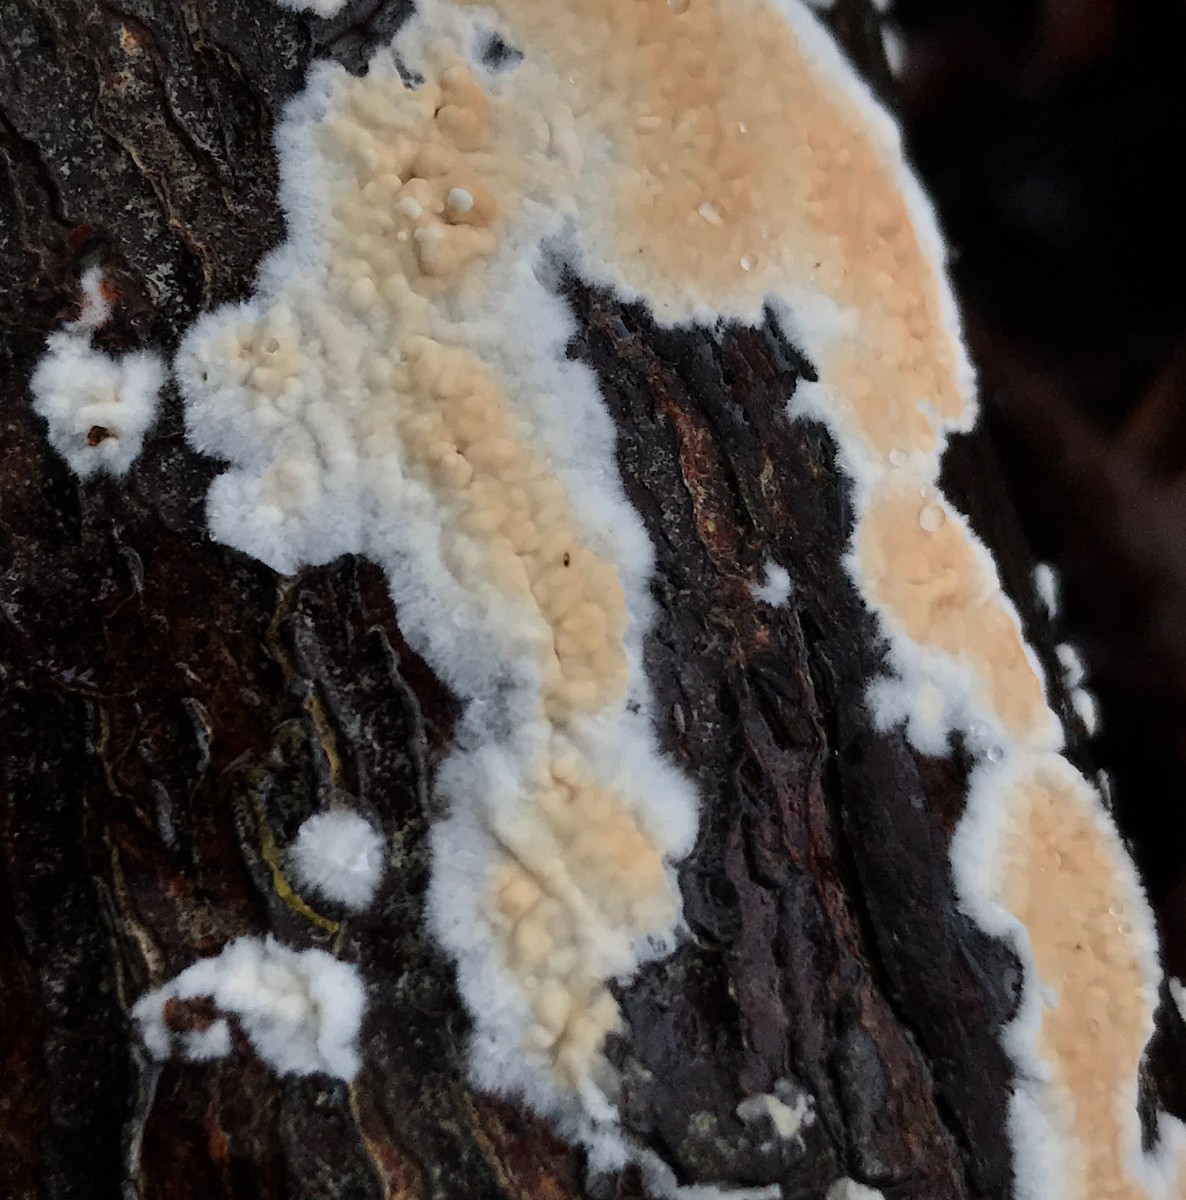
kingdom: Fungi
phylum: Basidiomycota
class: Agaricomycetes
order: Agaricales
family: Physalacriaceae
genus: Cylindrobasidium
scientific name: Cylindrobasidium evolvens
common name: sprækkehinde
